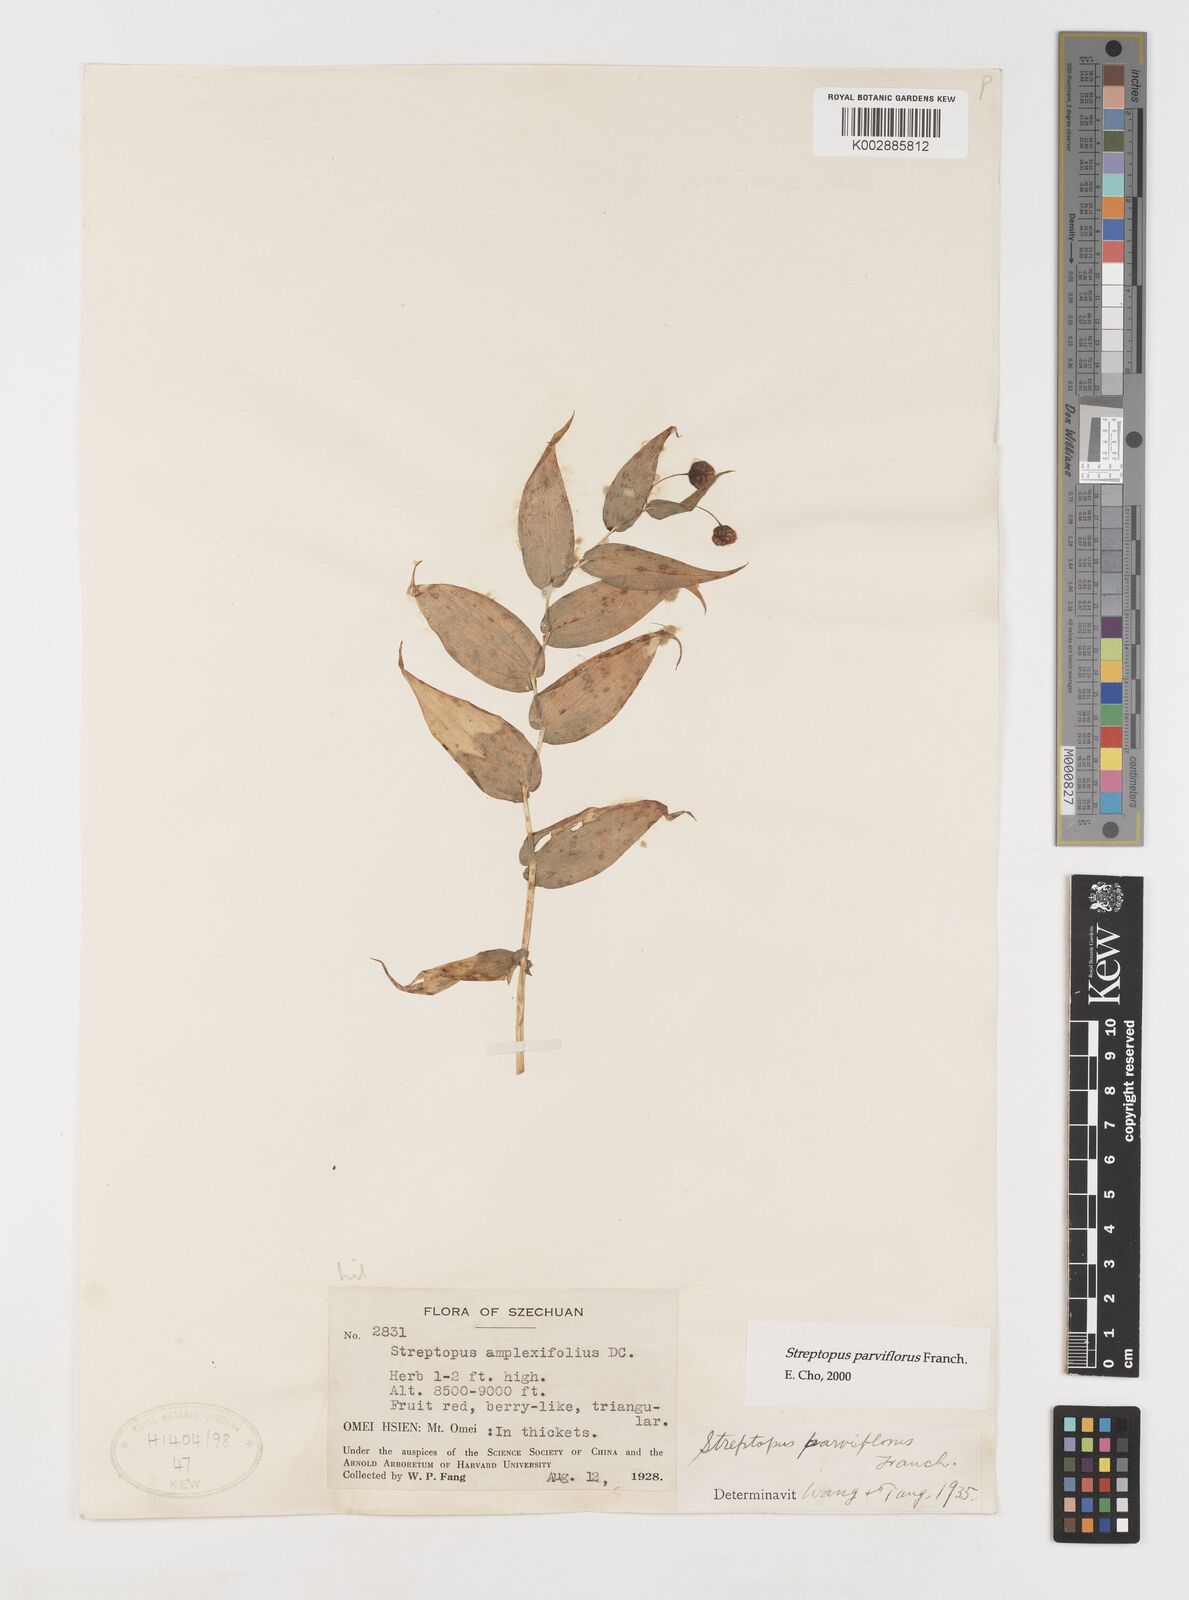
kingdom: Plantae
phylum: Tracheophyta
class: Liliopsida
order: Liliales
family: Liliaceae
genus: Streptopus
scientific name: Streptopus parviflorus
